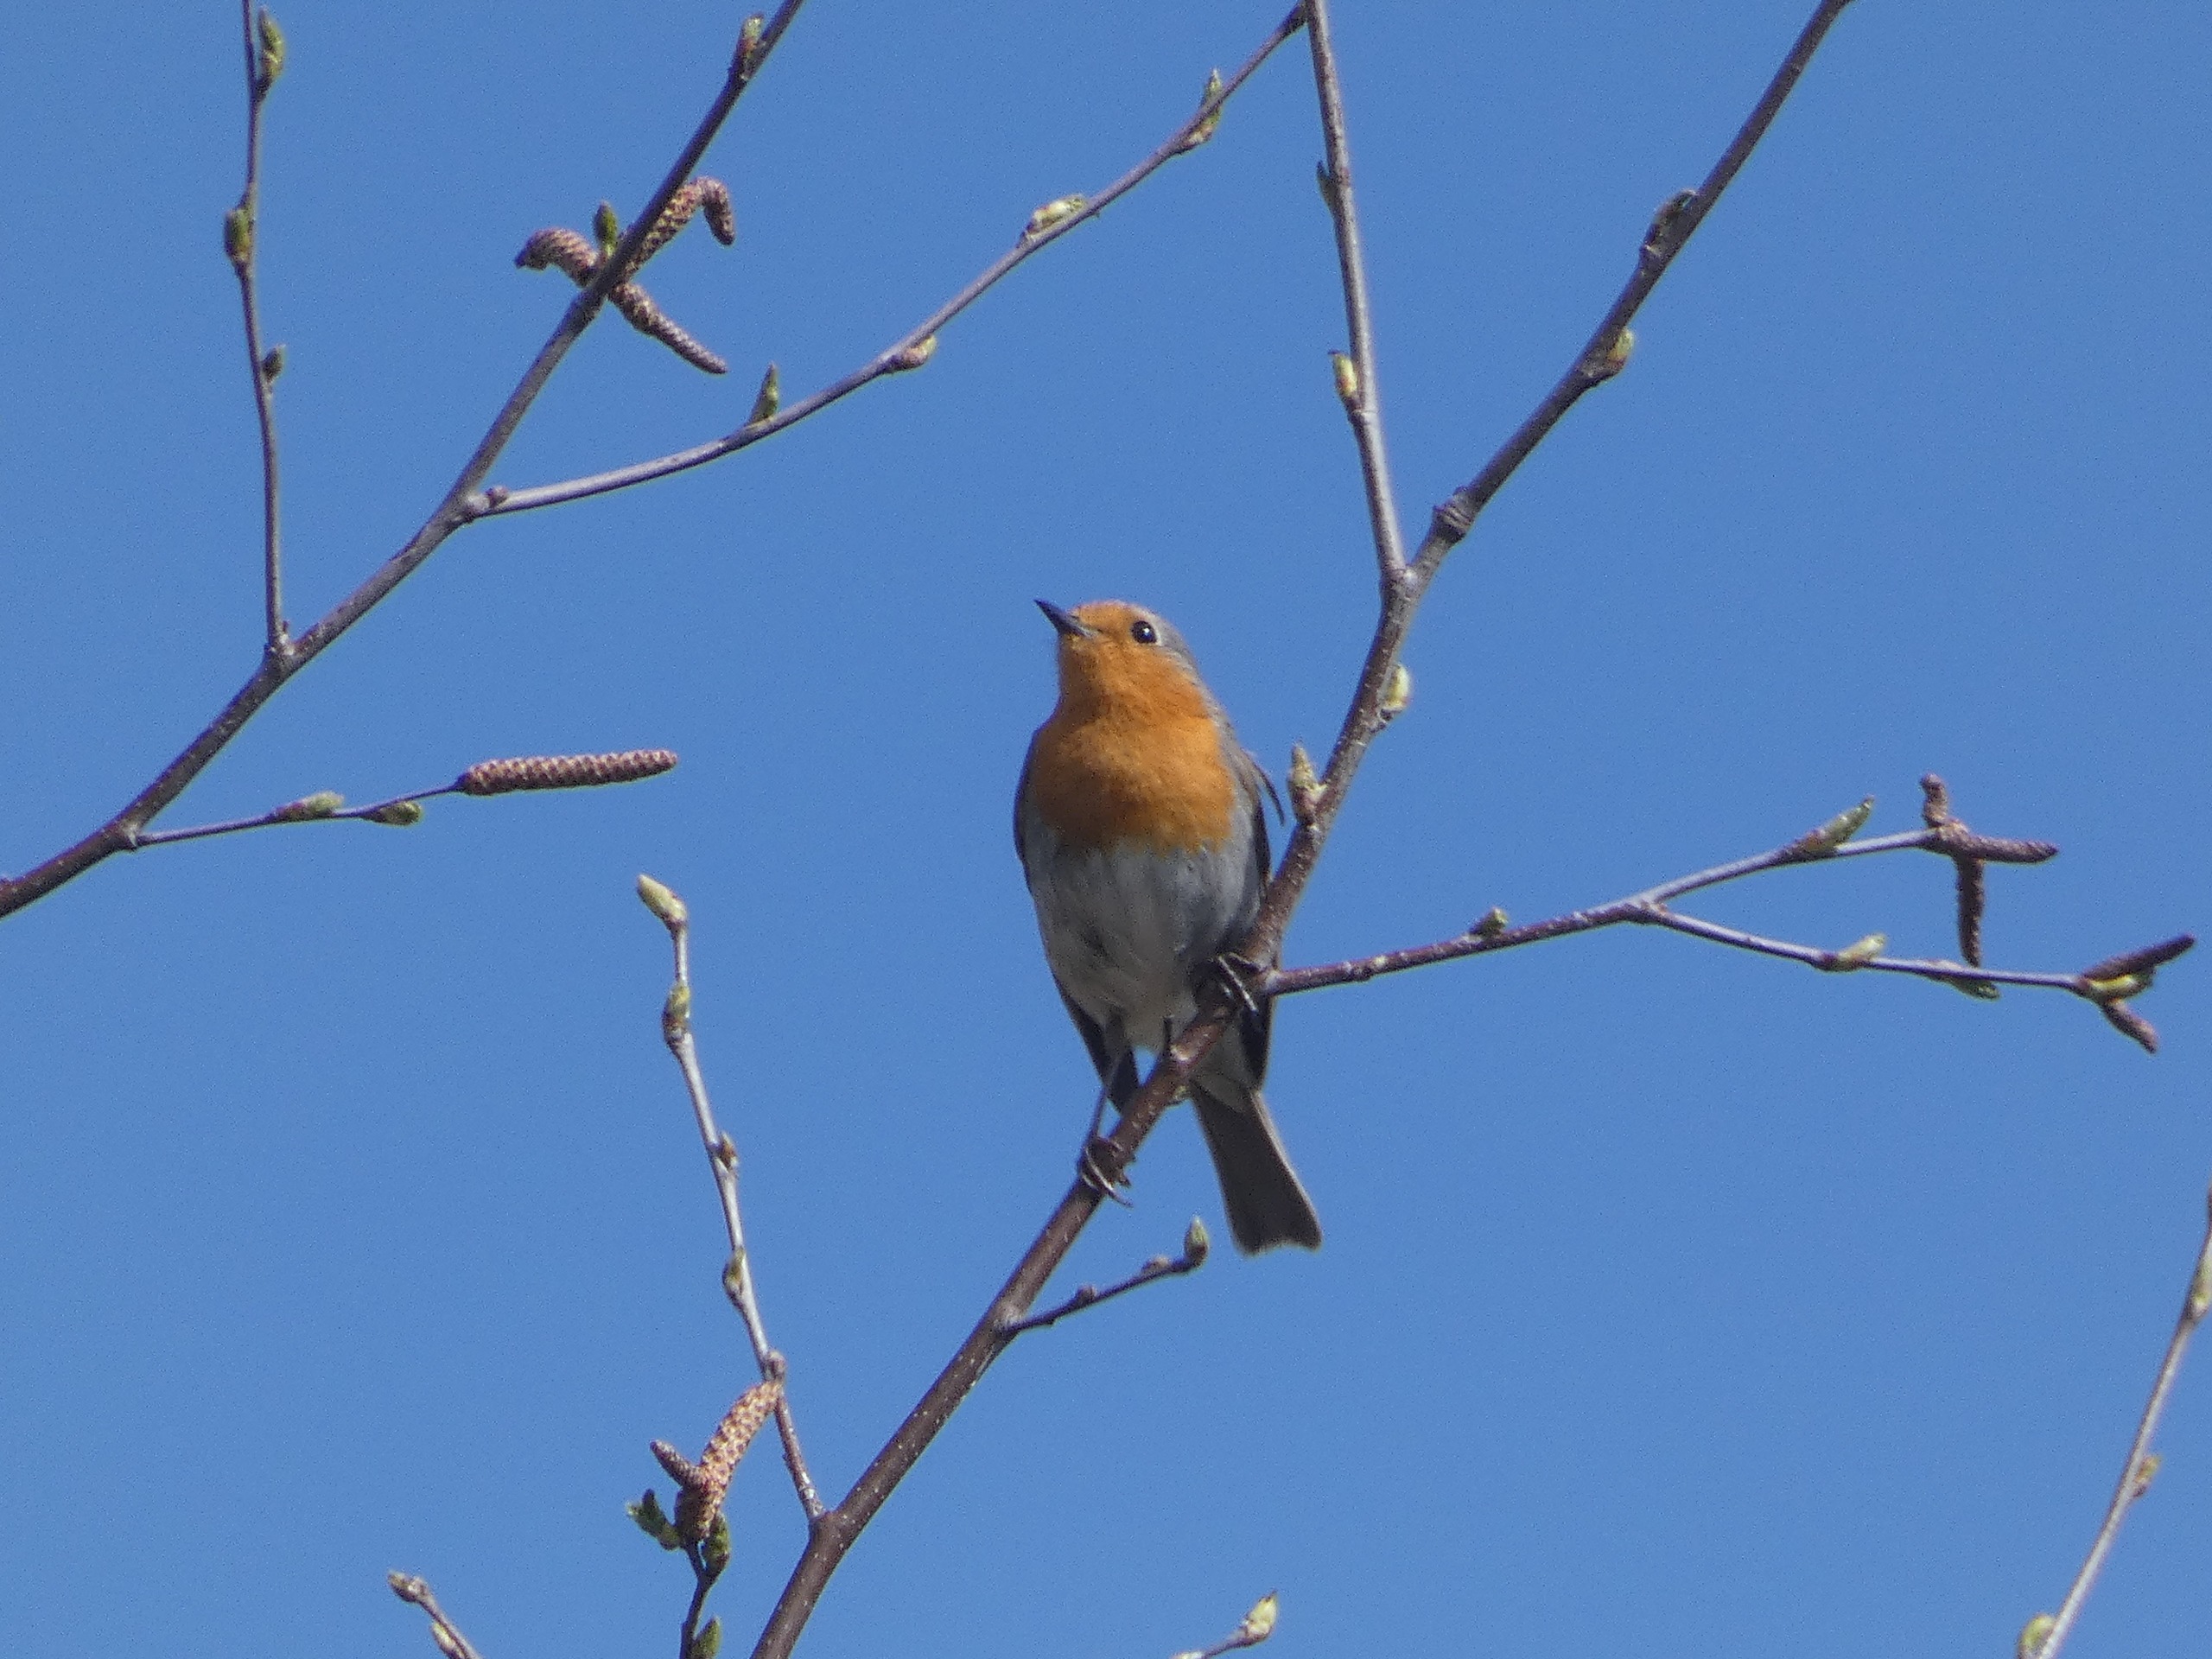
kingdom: Animalia
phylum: Chordata
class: Aves
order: Passeriformes
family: Muscicapidae
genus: Erithacus
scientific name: Erithacus rubecula
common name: Rødhals/rødkælk
